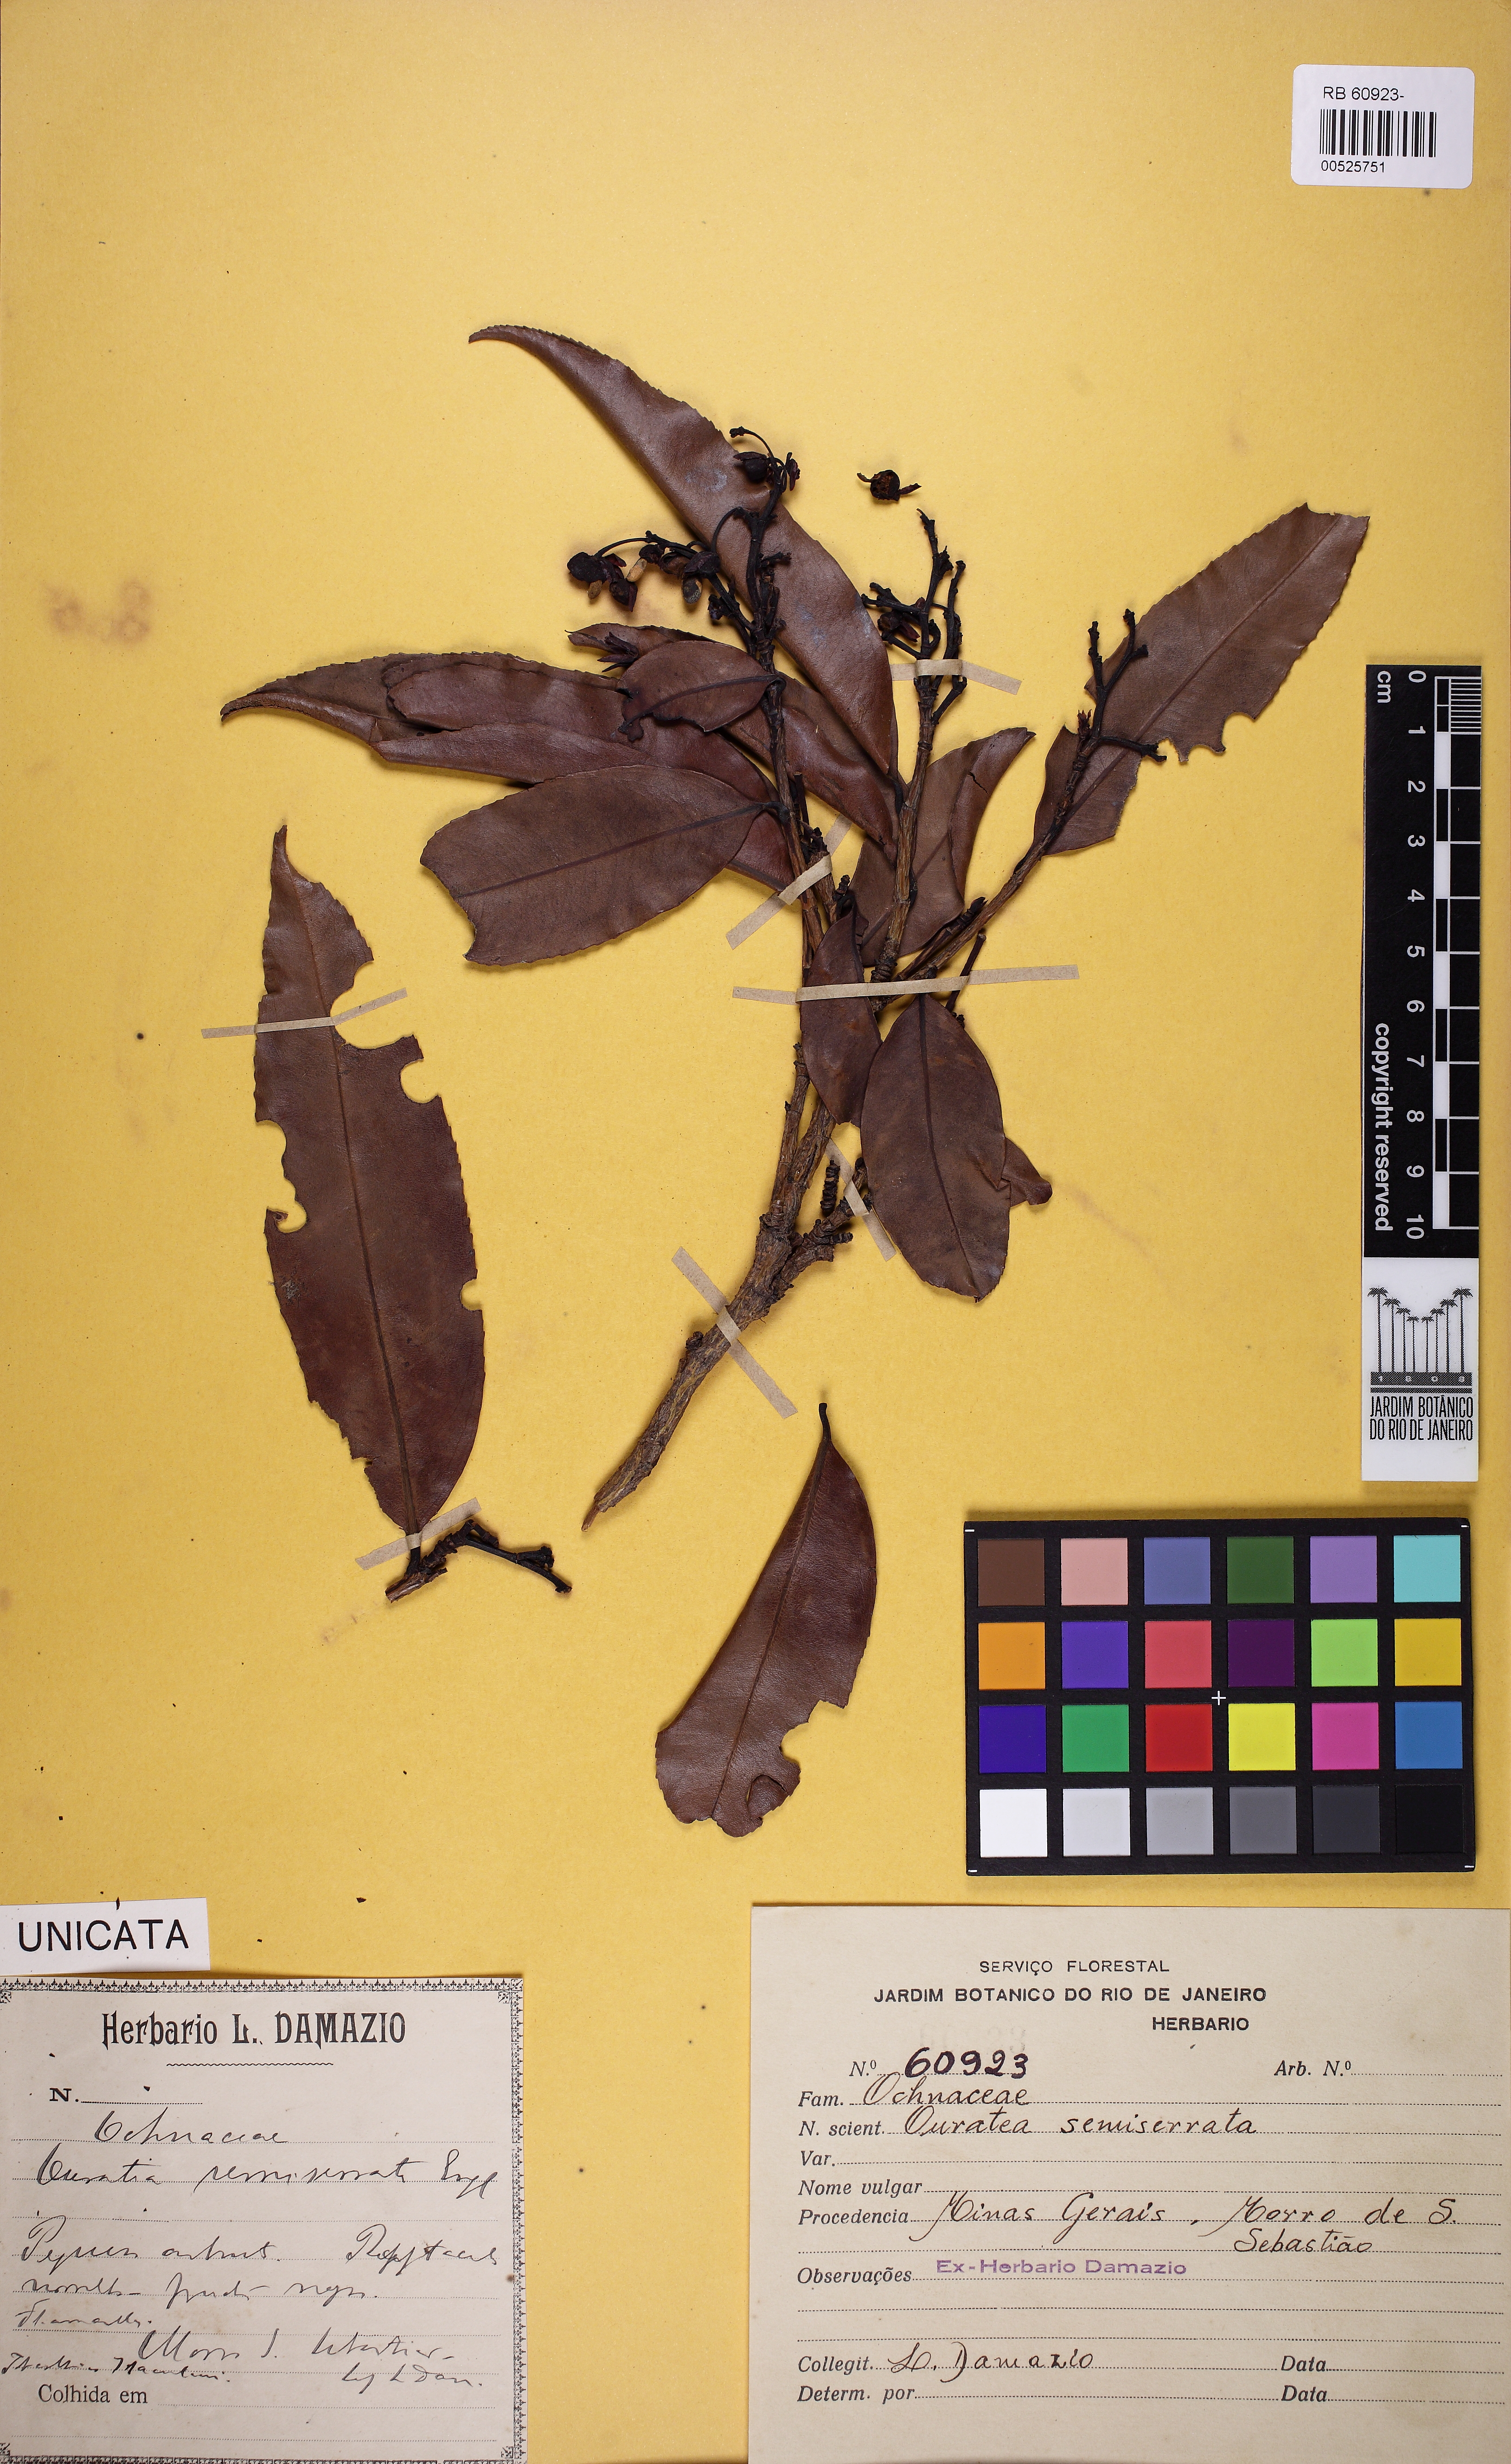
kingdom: Plantae
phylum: Tracheophyta
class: Magnoliopsida
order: Malpighiales
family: Ochnaceae
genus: Ouratea
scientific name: Ouratea semiserrata
